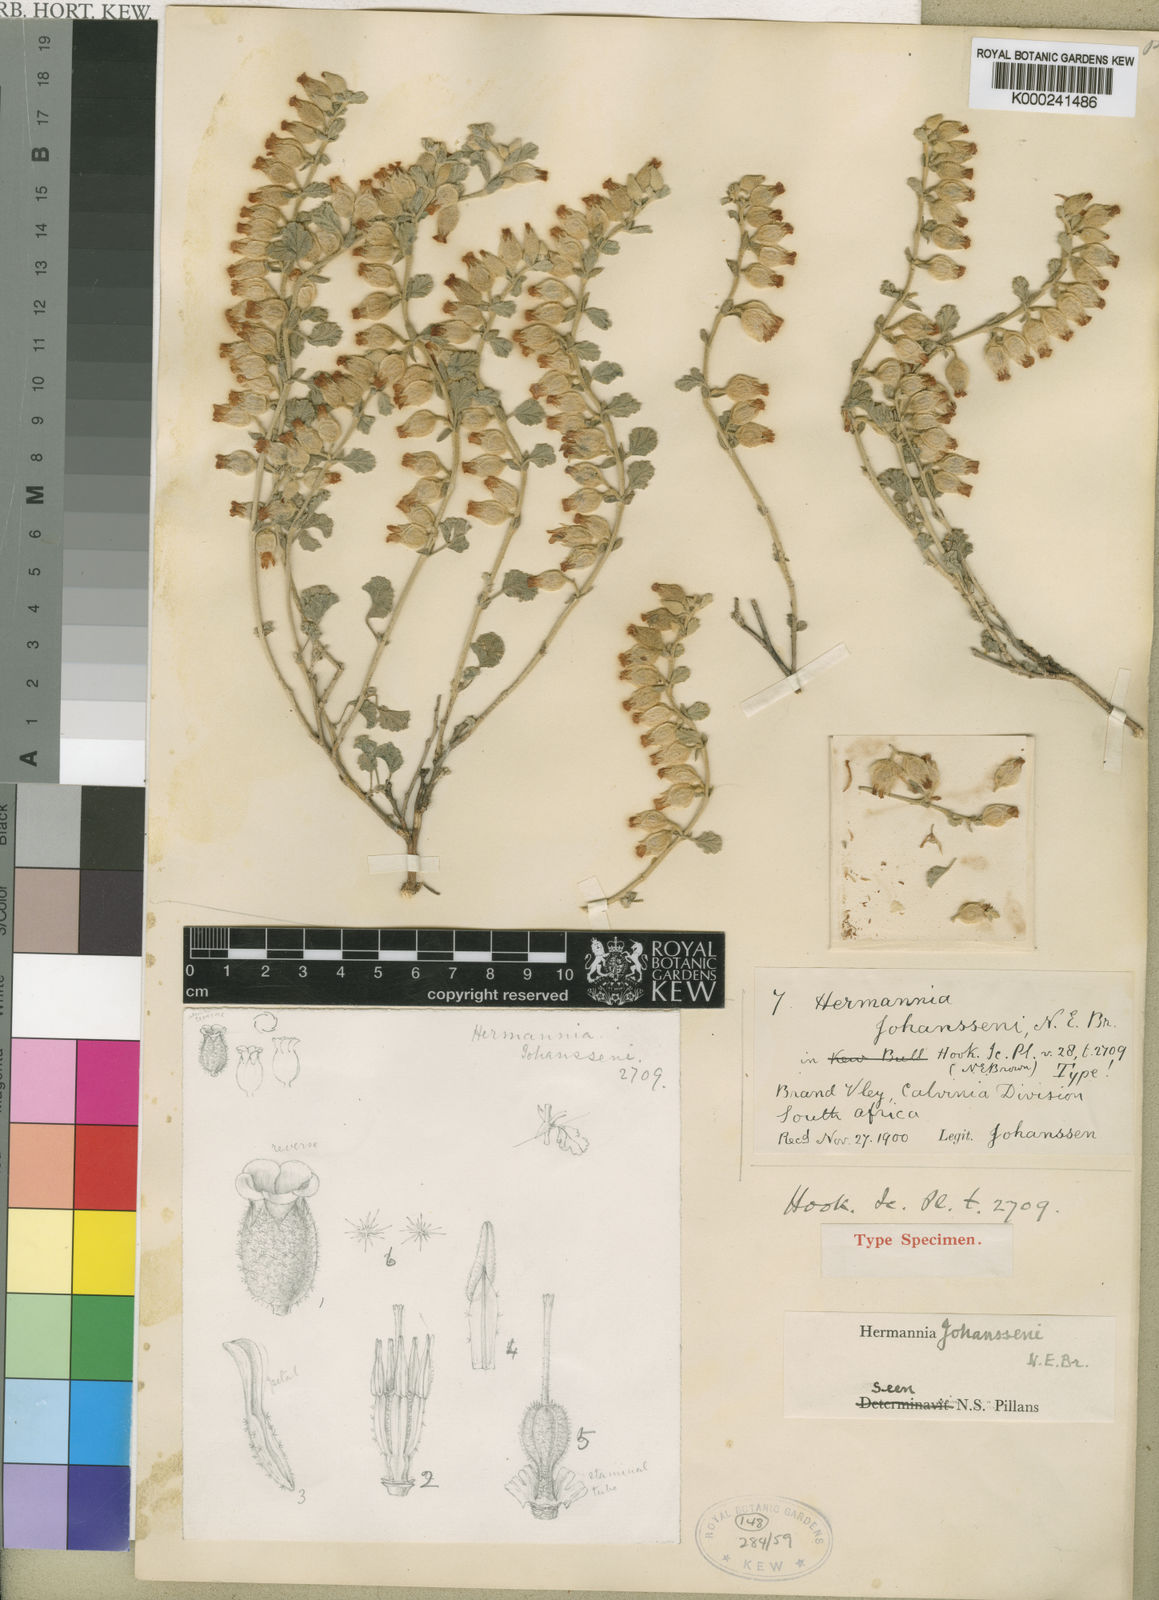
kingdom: Plantae
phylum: Tracheophyta
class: Magnoliopsida
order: Malvales
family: Malvaceae
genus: Hermannia
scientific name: Hermannia johanssenii
